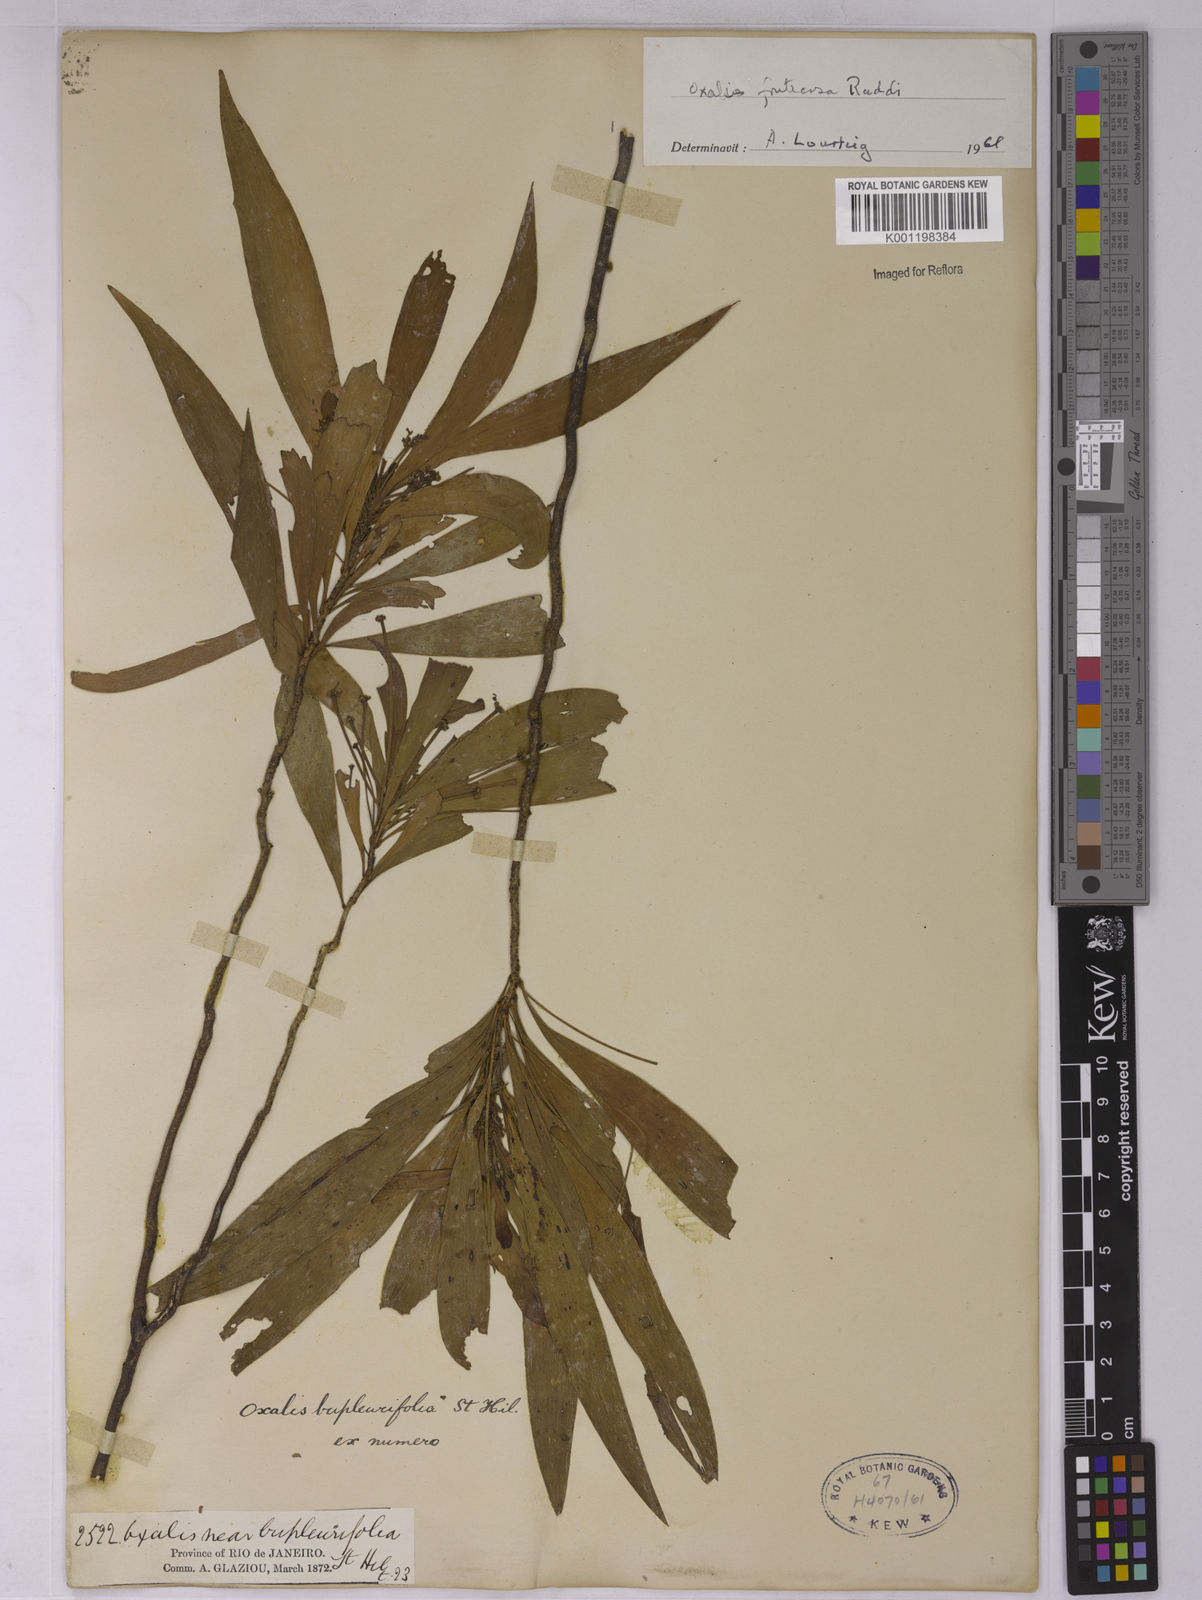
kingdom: Plantae
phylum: Tracheophyta
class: Magnoliopsida
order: Oxalidales
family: Oxalidaceae
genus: Oxalis
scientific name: Oxalis fruticosa
